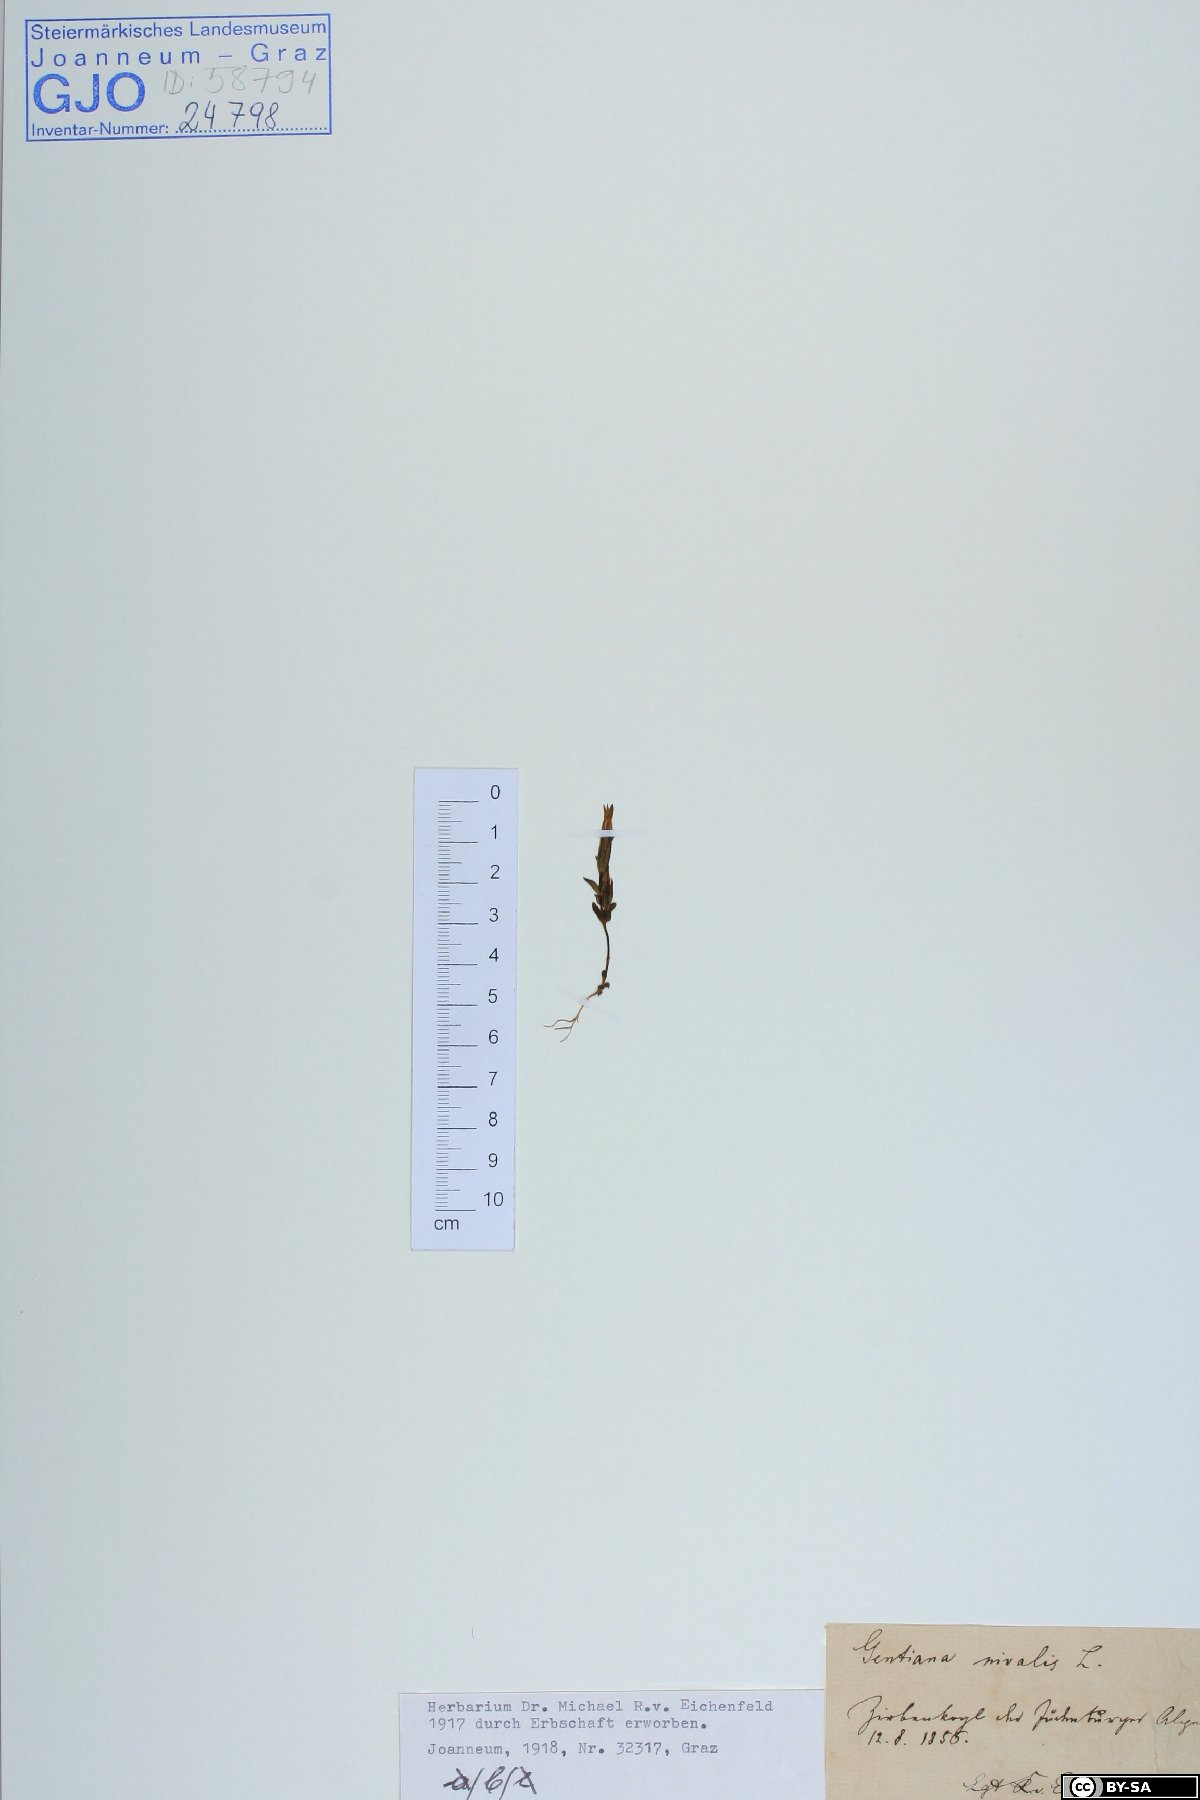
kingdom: Plantae
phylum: Tracheophyta
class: Magnoliopsida
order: Gentianales
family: Gentianaceae
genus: Gentiana
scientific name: Gentiana nivalis
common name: Alpine gentian
